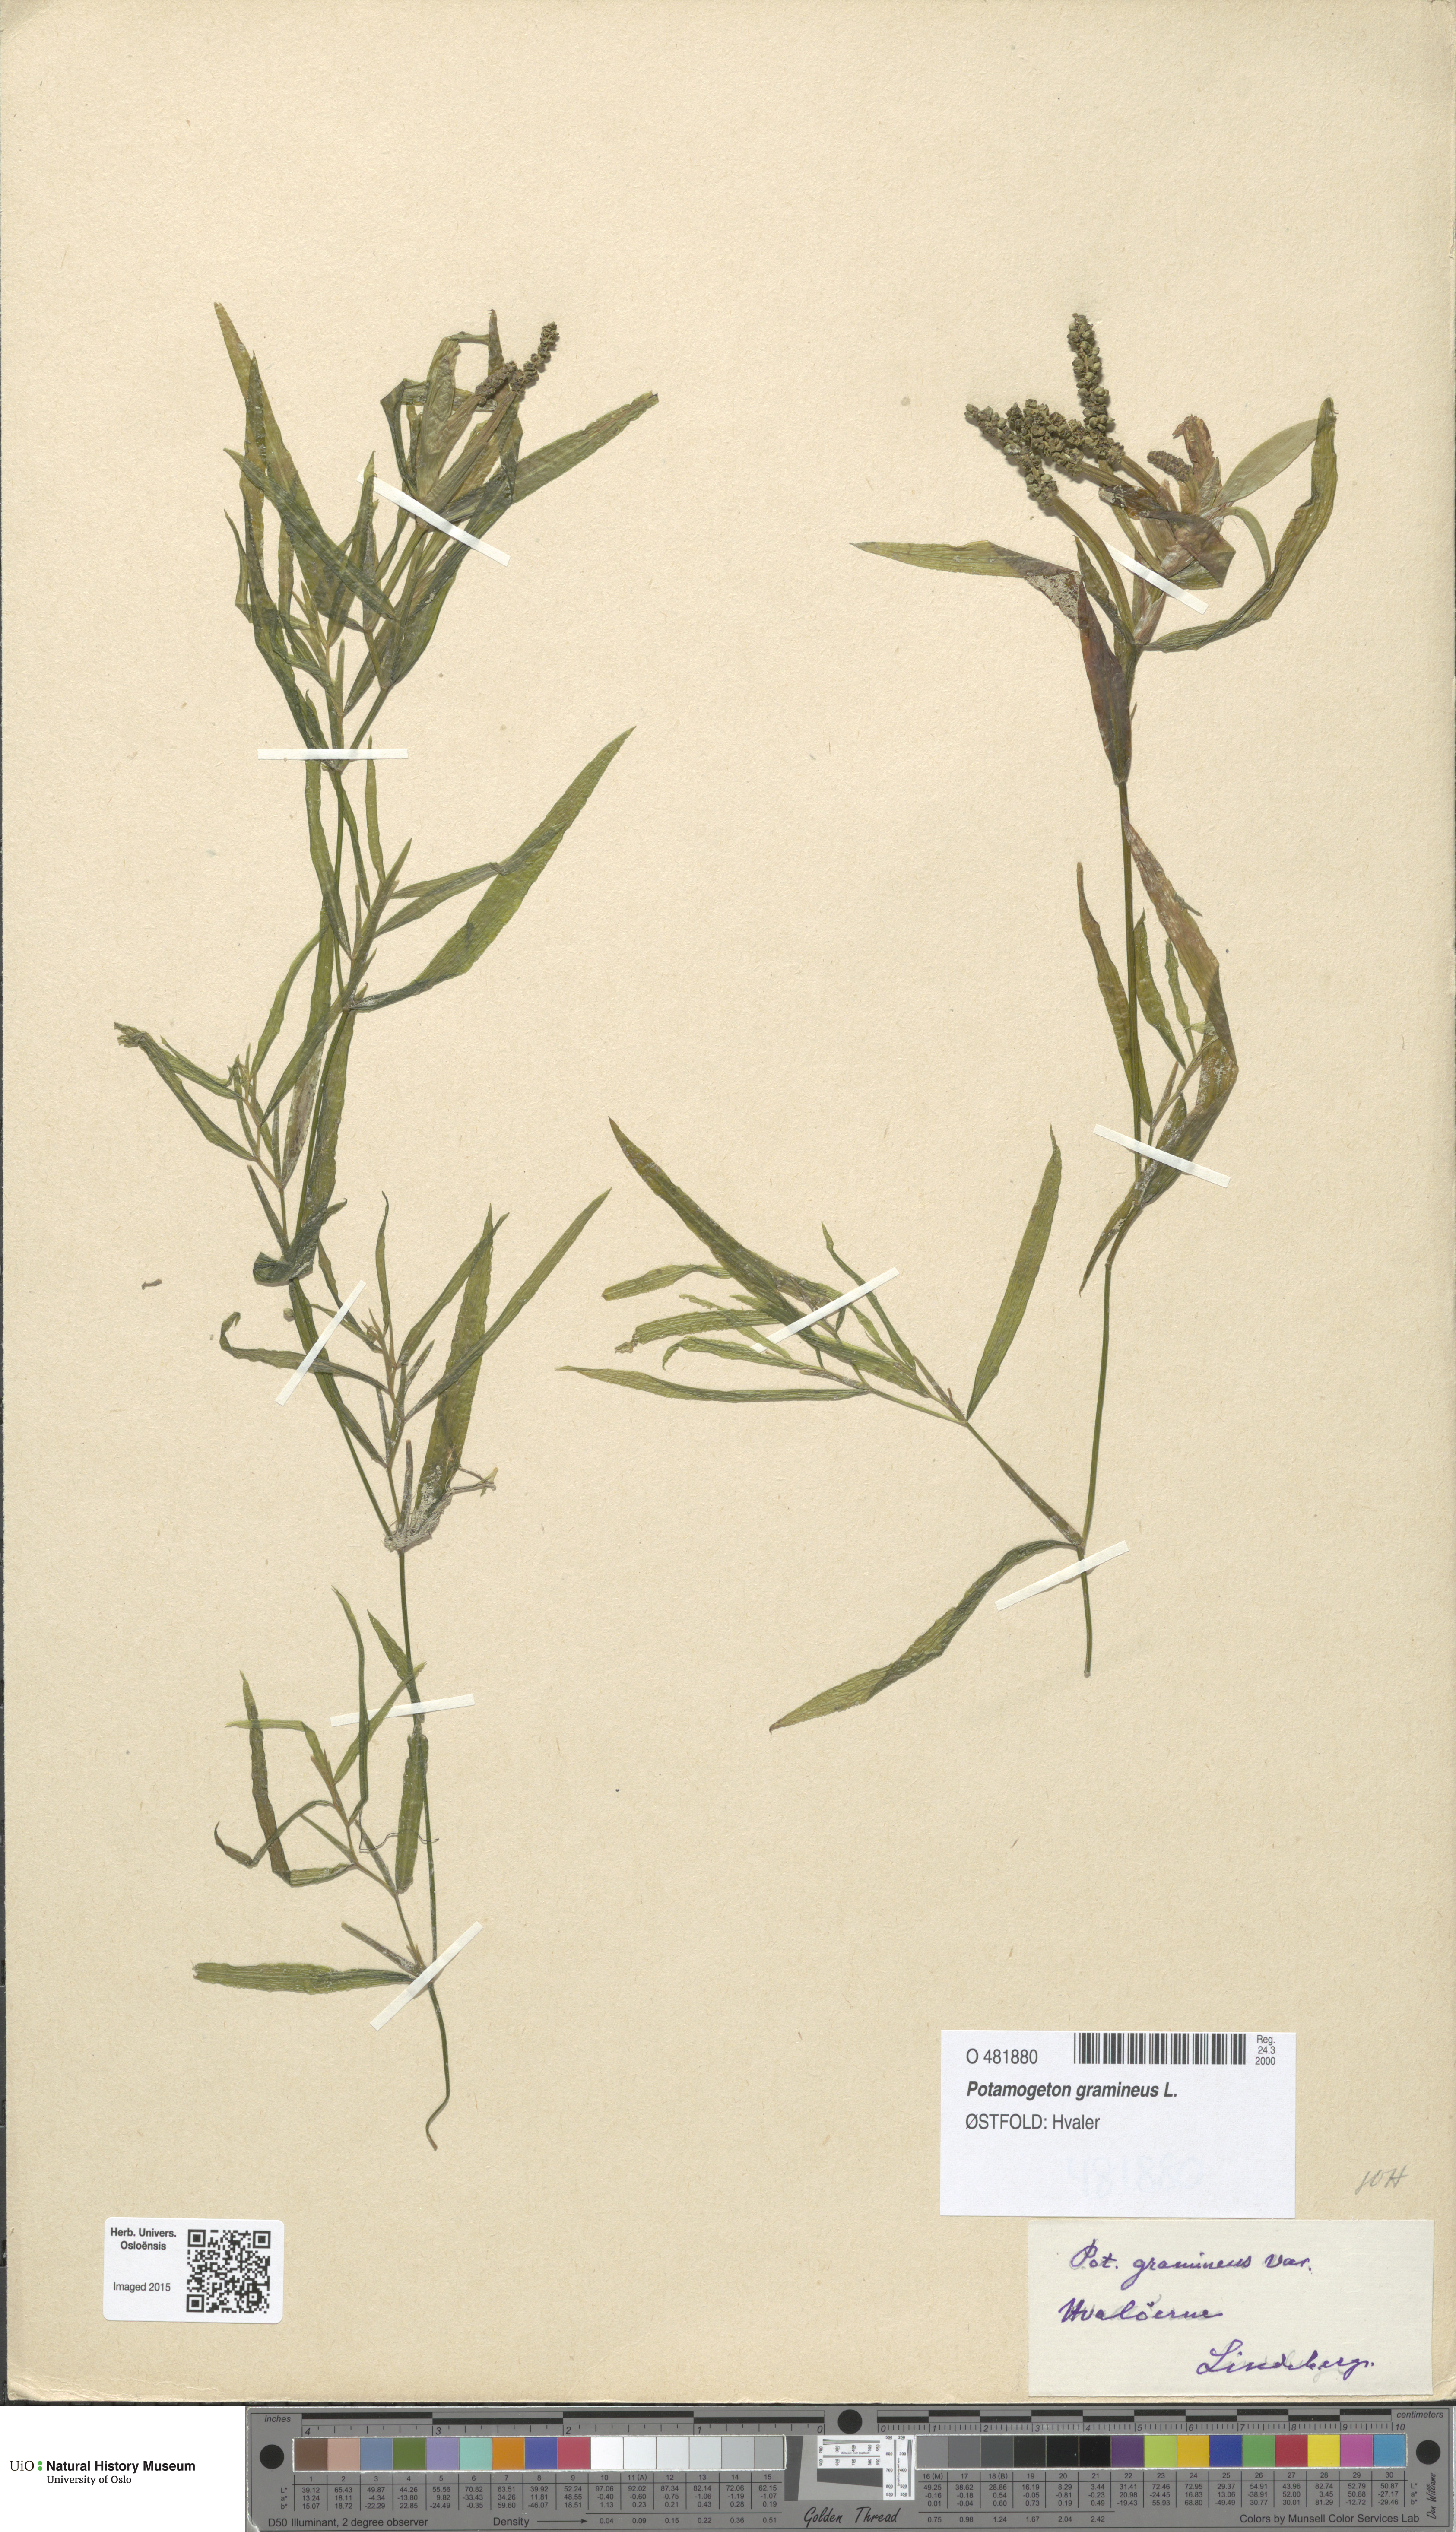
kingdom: Plantae
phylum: Tracheophyta
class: Liliopsida
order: Alismatales
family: Potamogetonaceae
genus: Potamogeton
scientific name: Potamogeton gramineus
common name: Various-leaved pondweed
